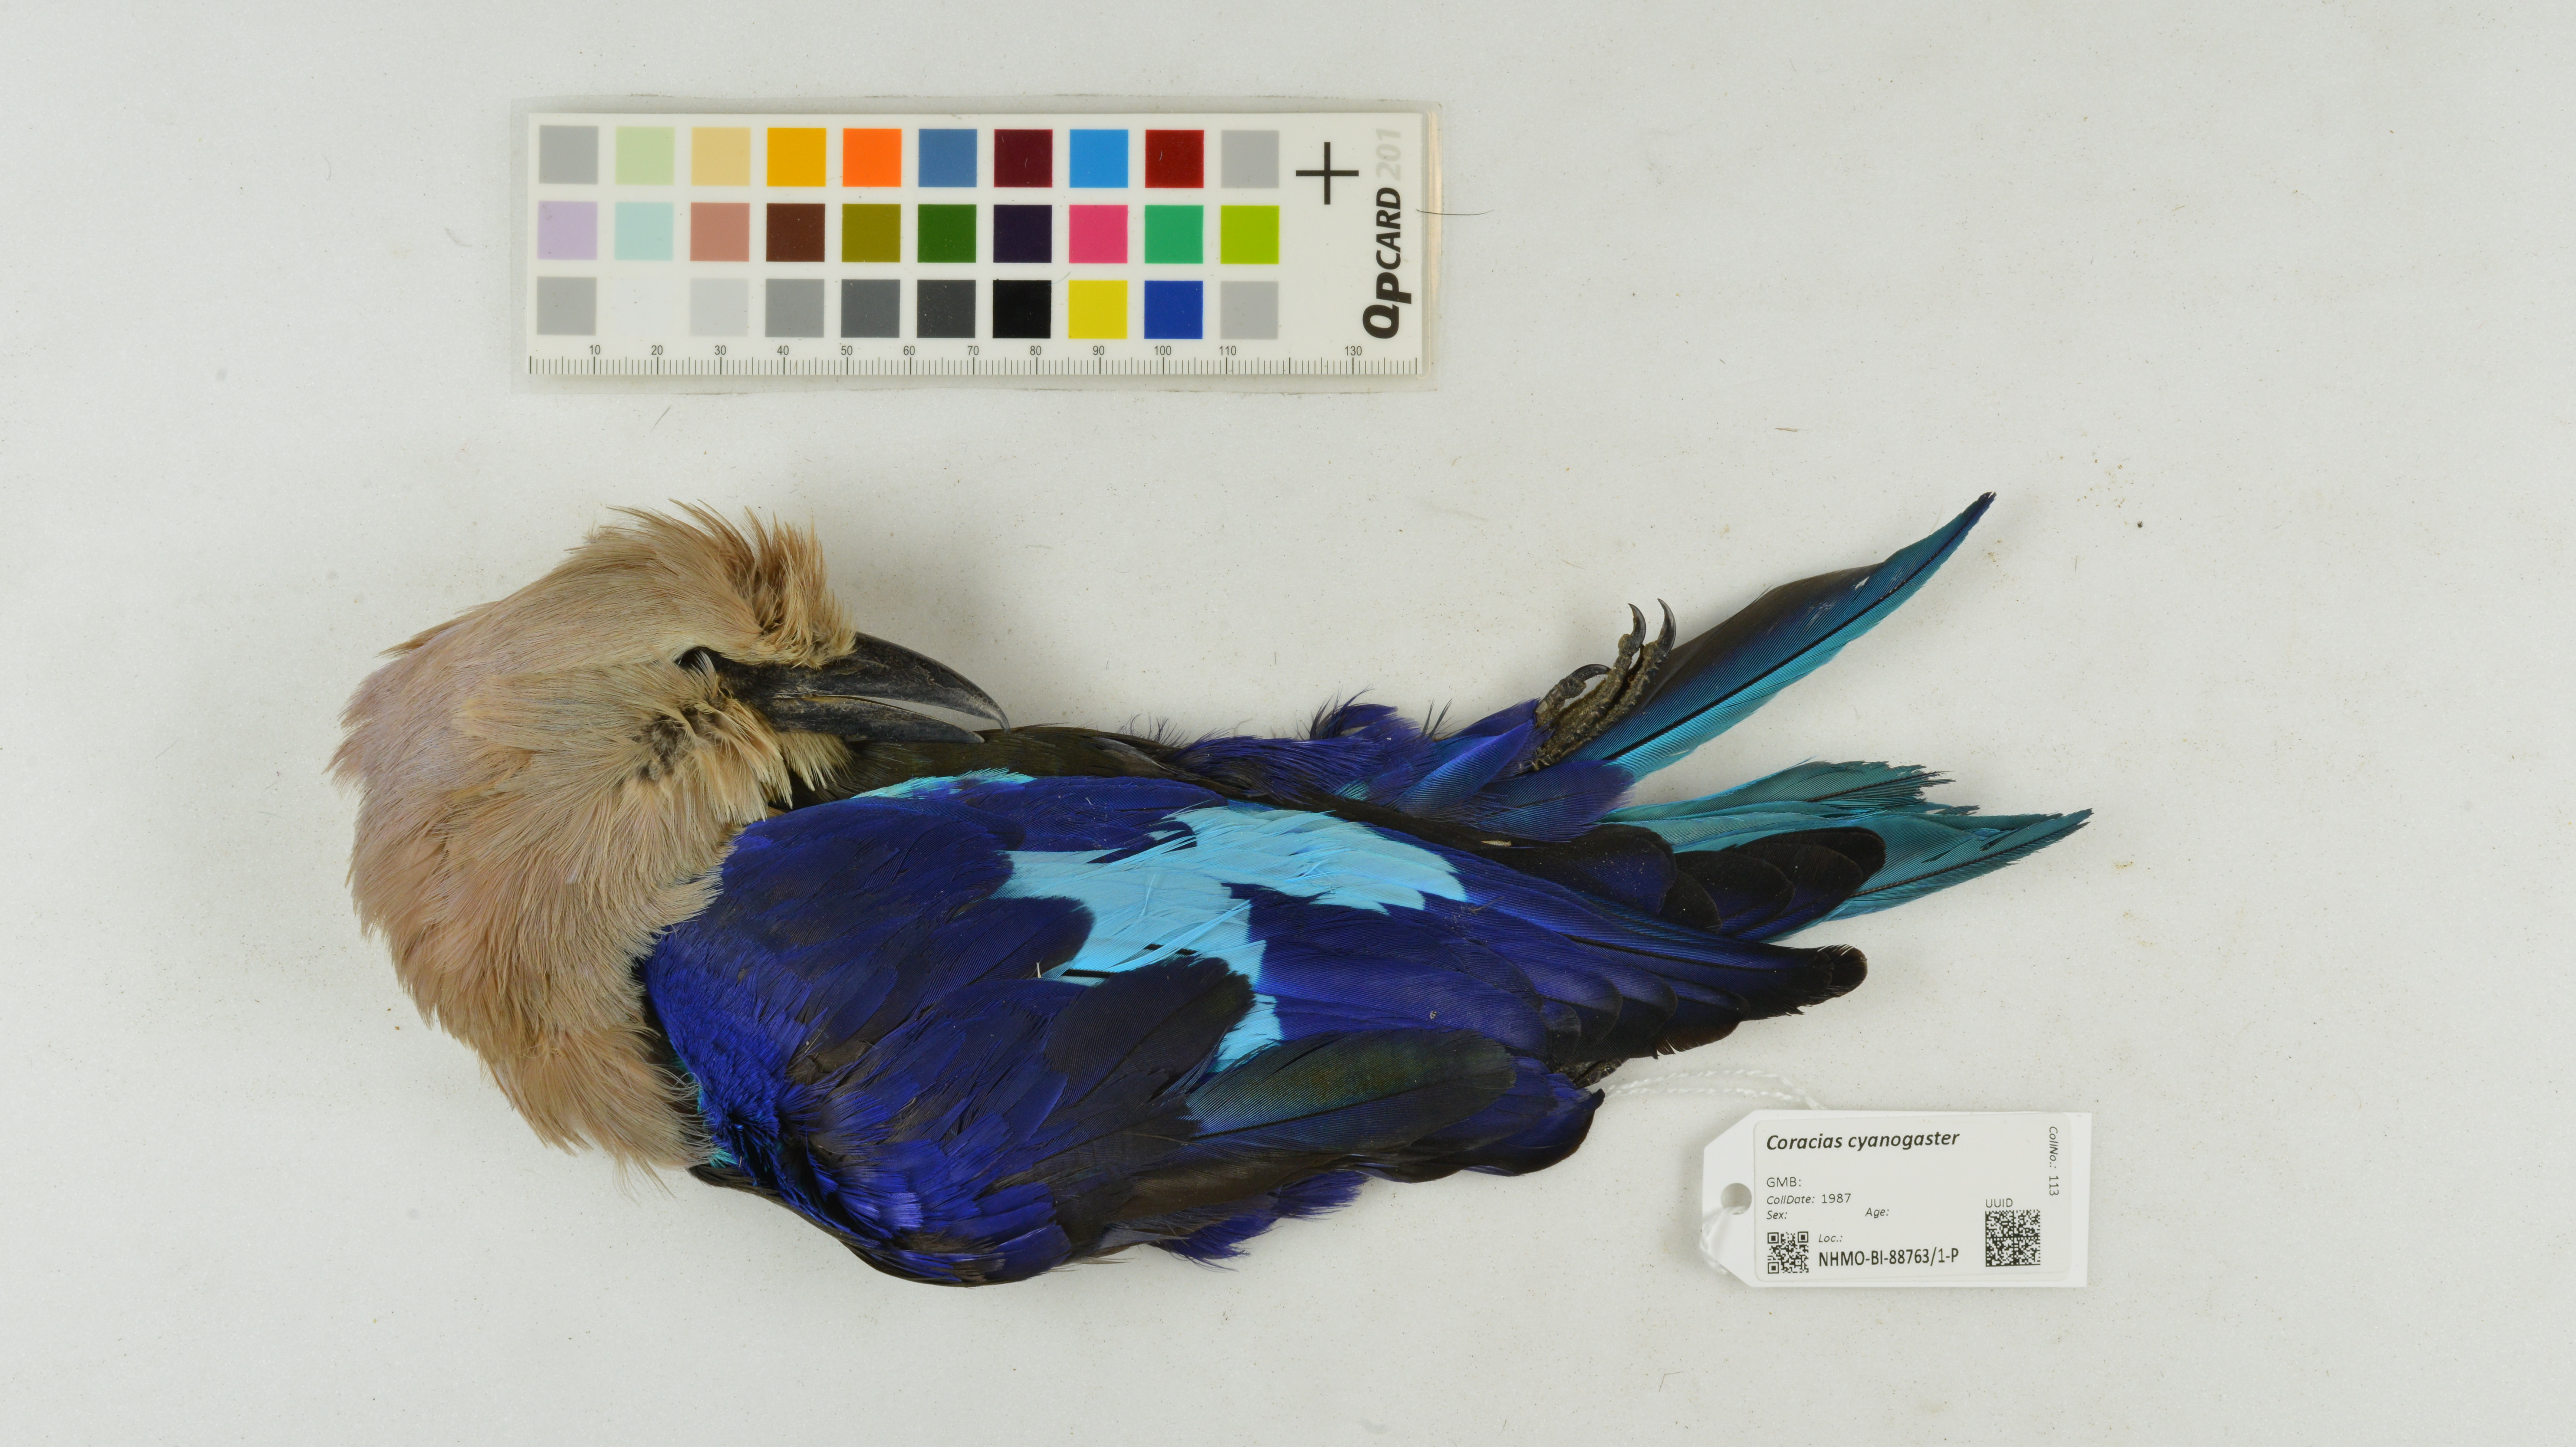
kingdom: Animalia
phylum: Chordata
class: Aves
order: Coraciiformes
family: Coraciidae
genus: Coracias
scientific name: Coracias cyanogaster
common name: Blue-bellied roller
